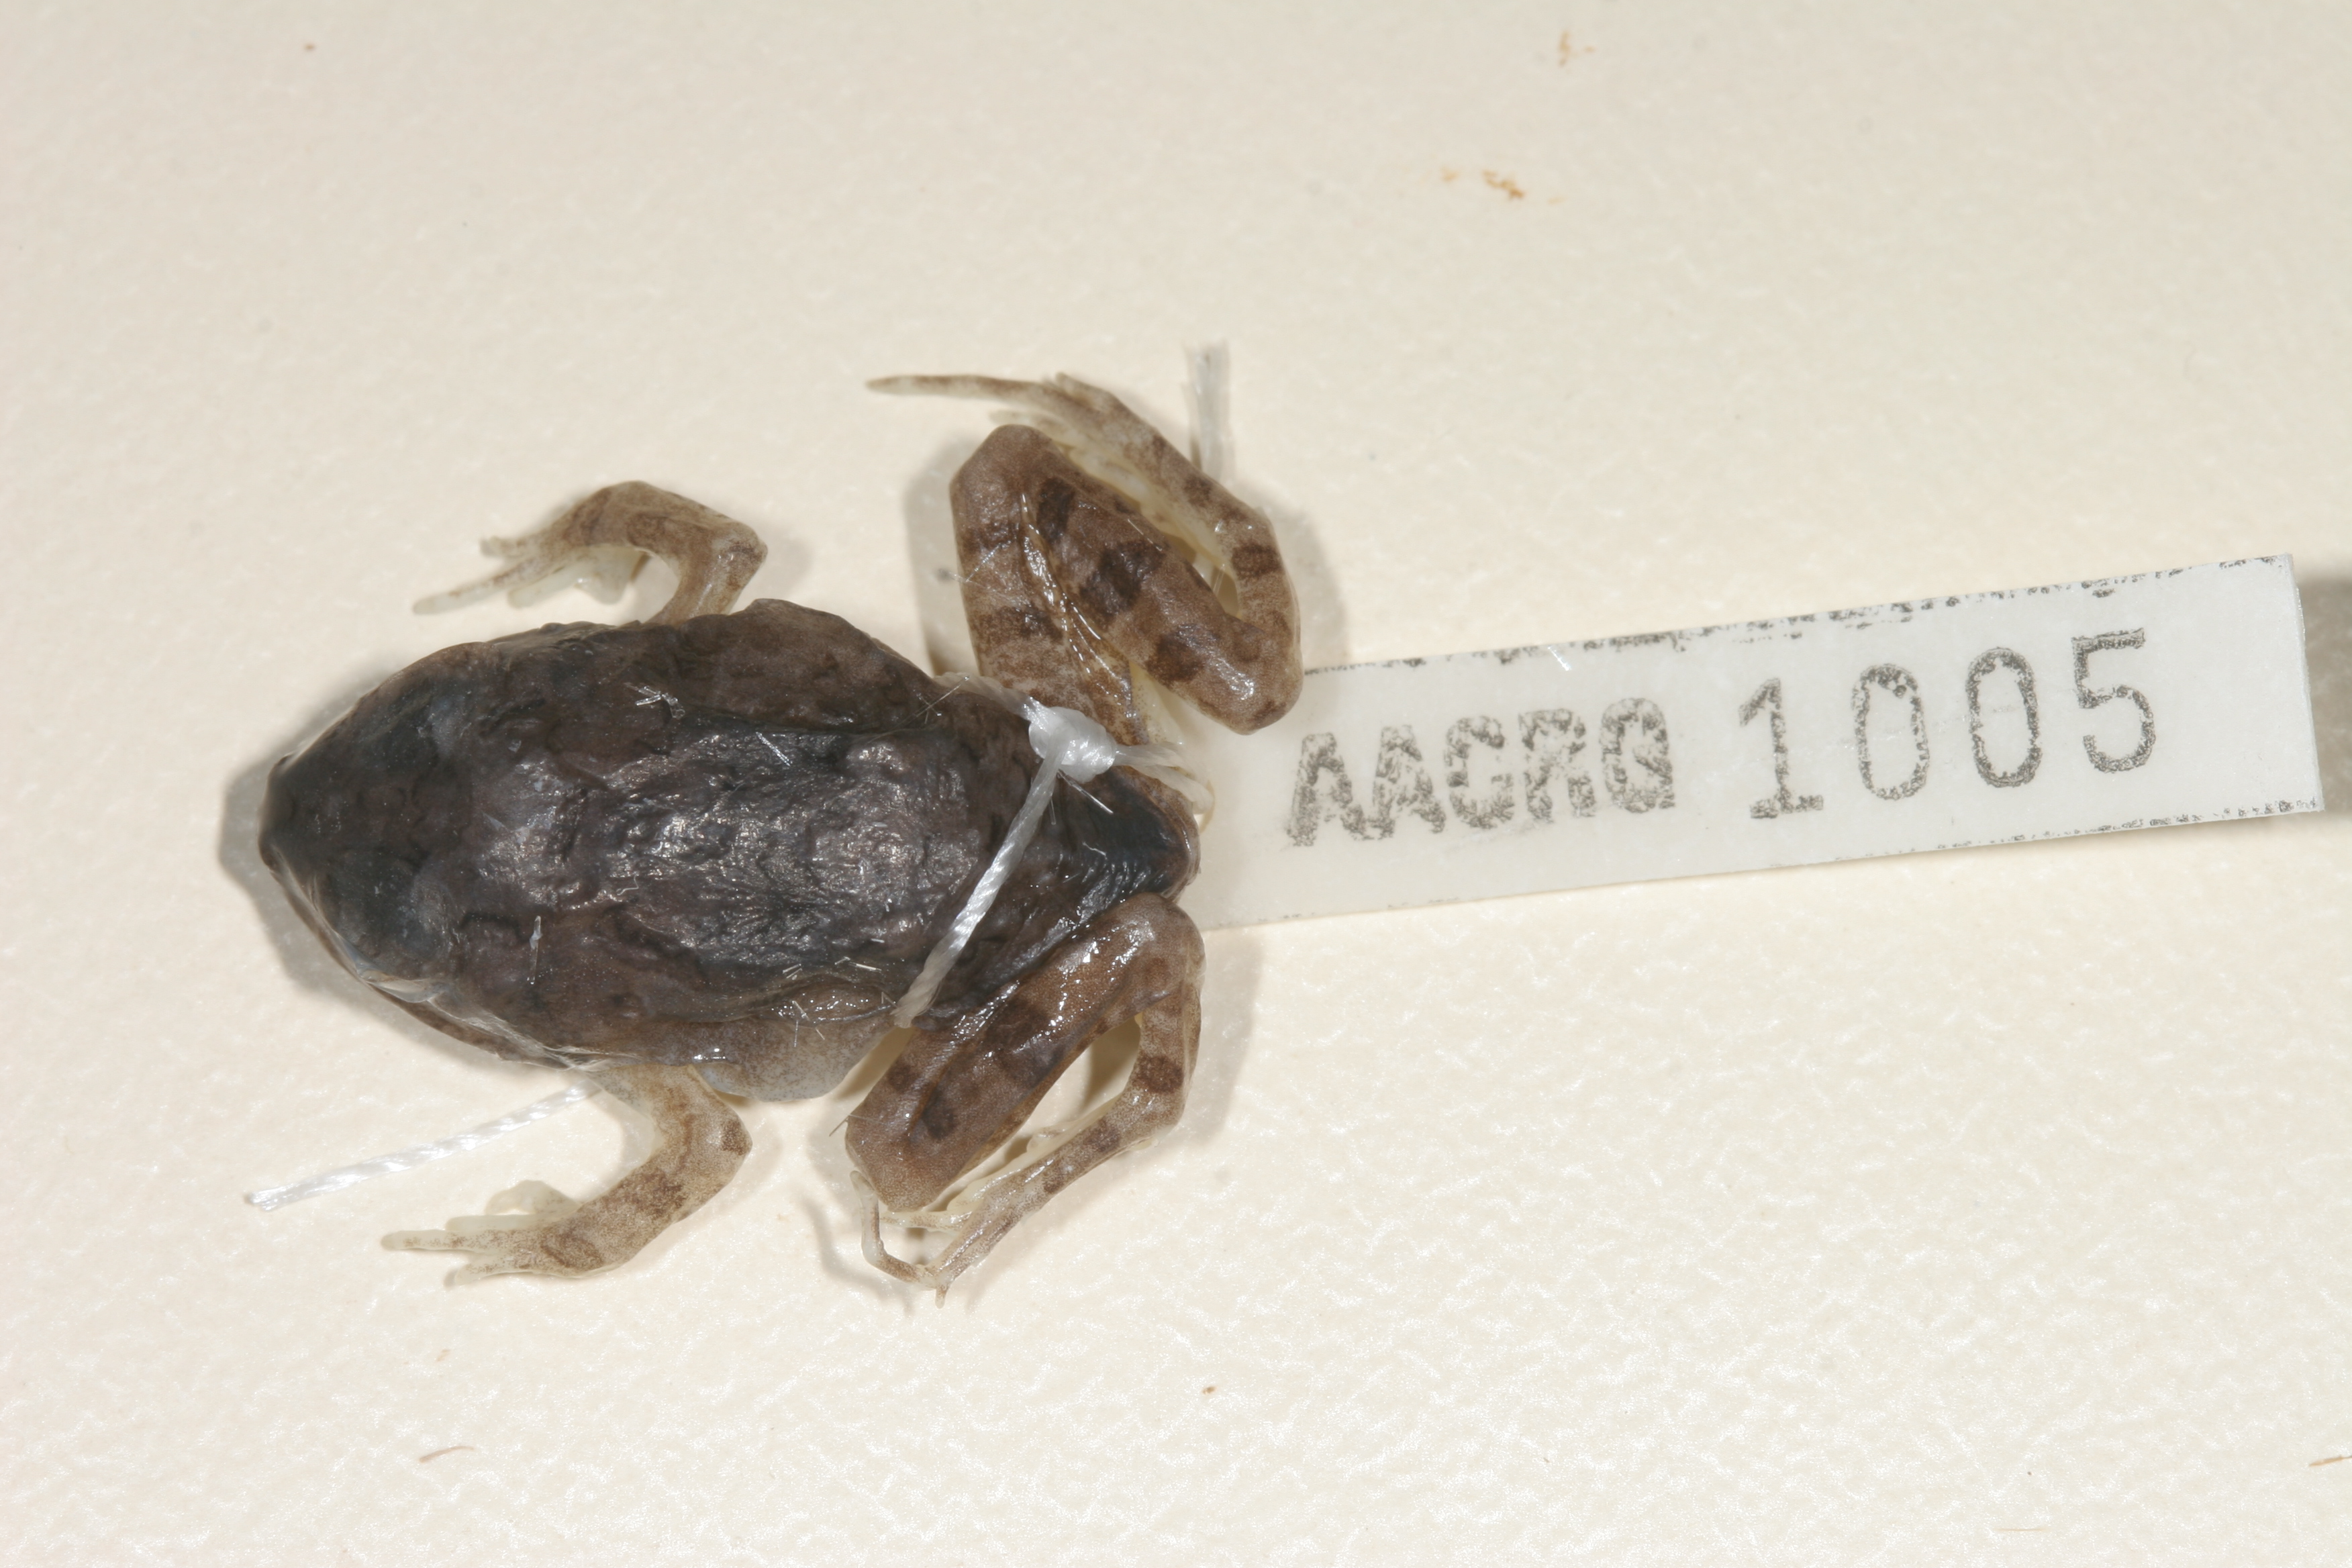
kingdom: Animalia
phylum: Chordata
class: Amphibia
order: Anura
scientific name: Anura
